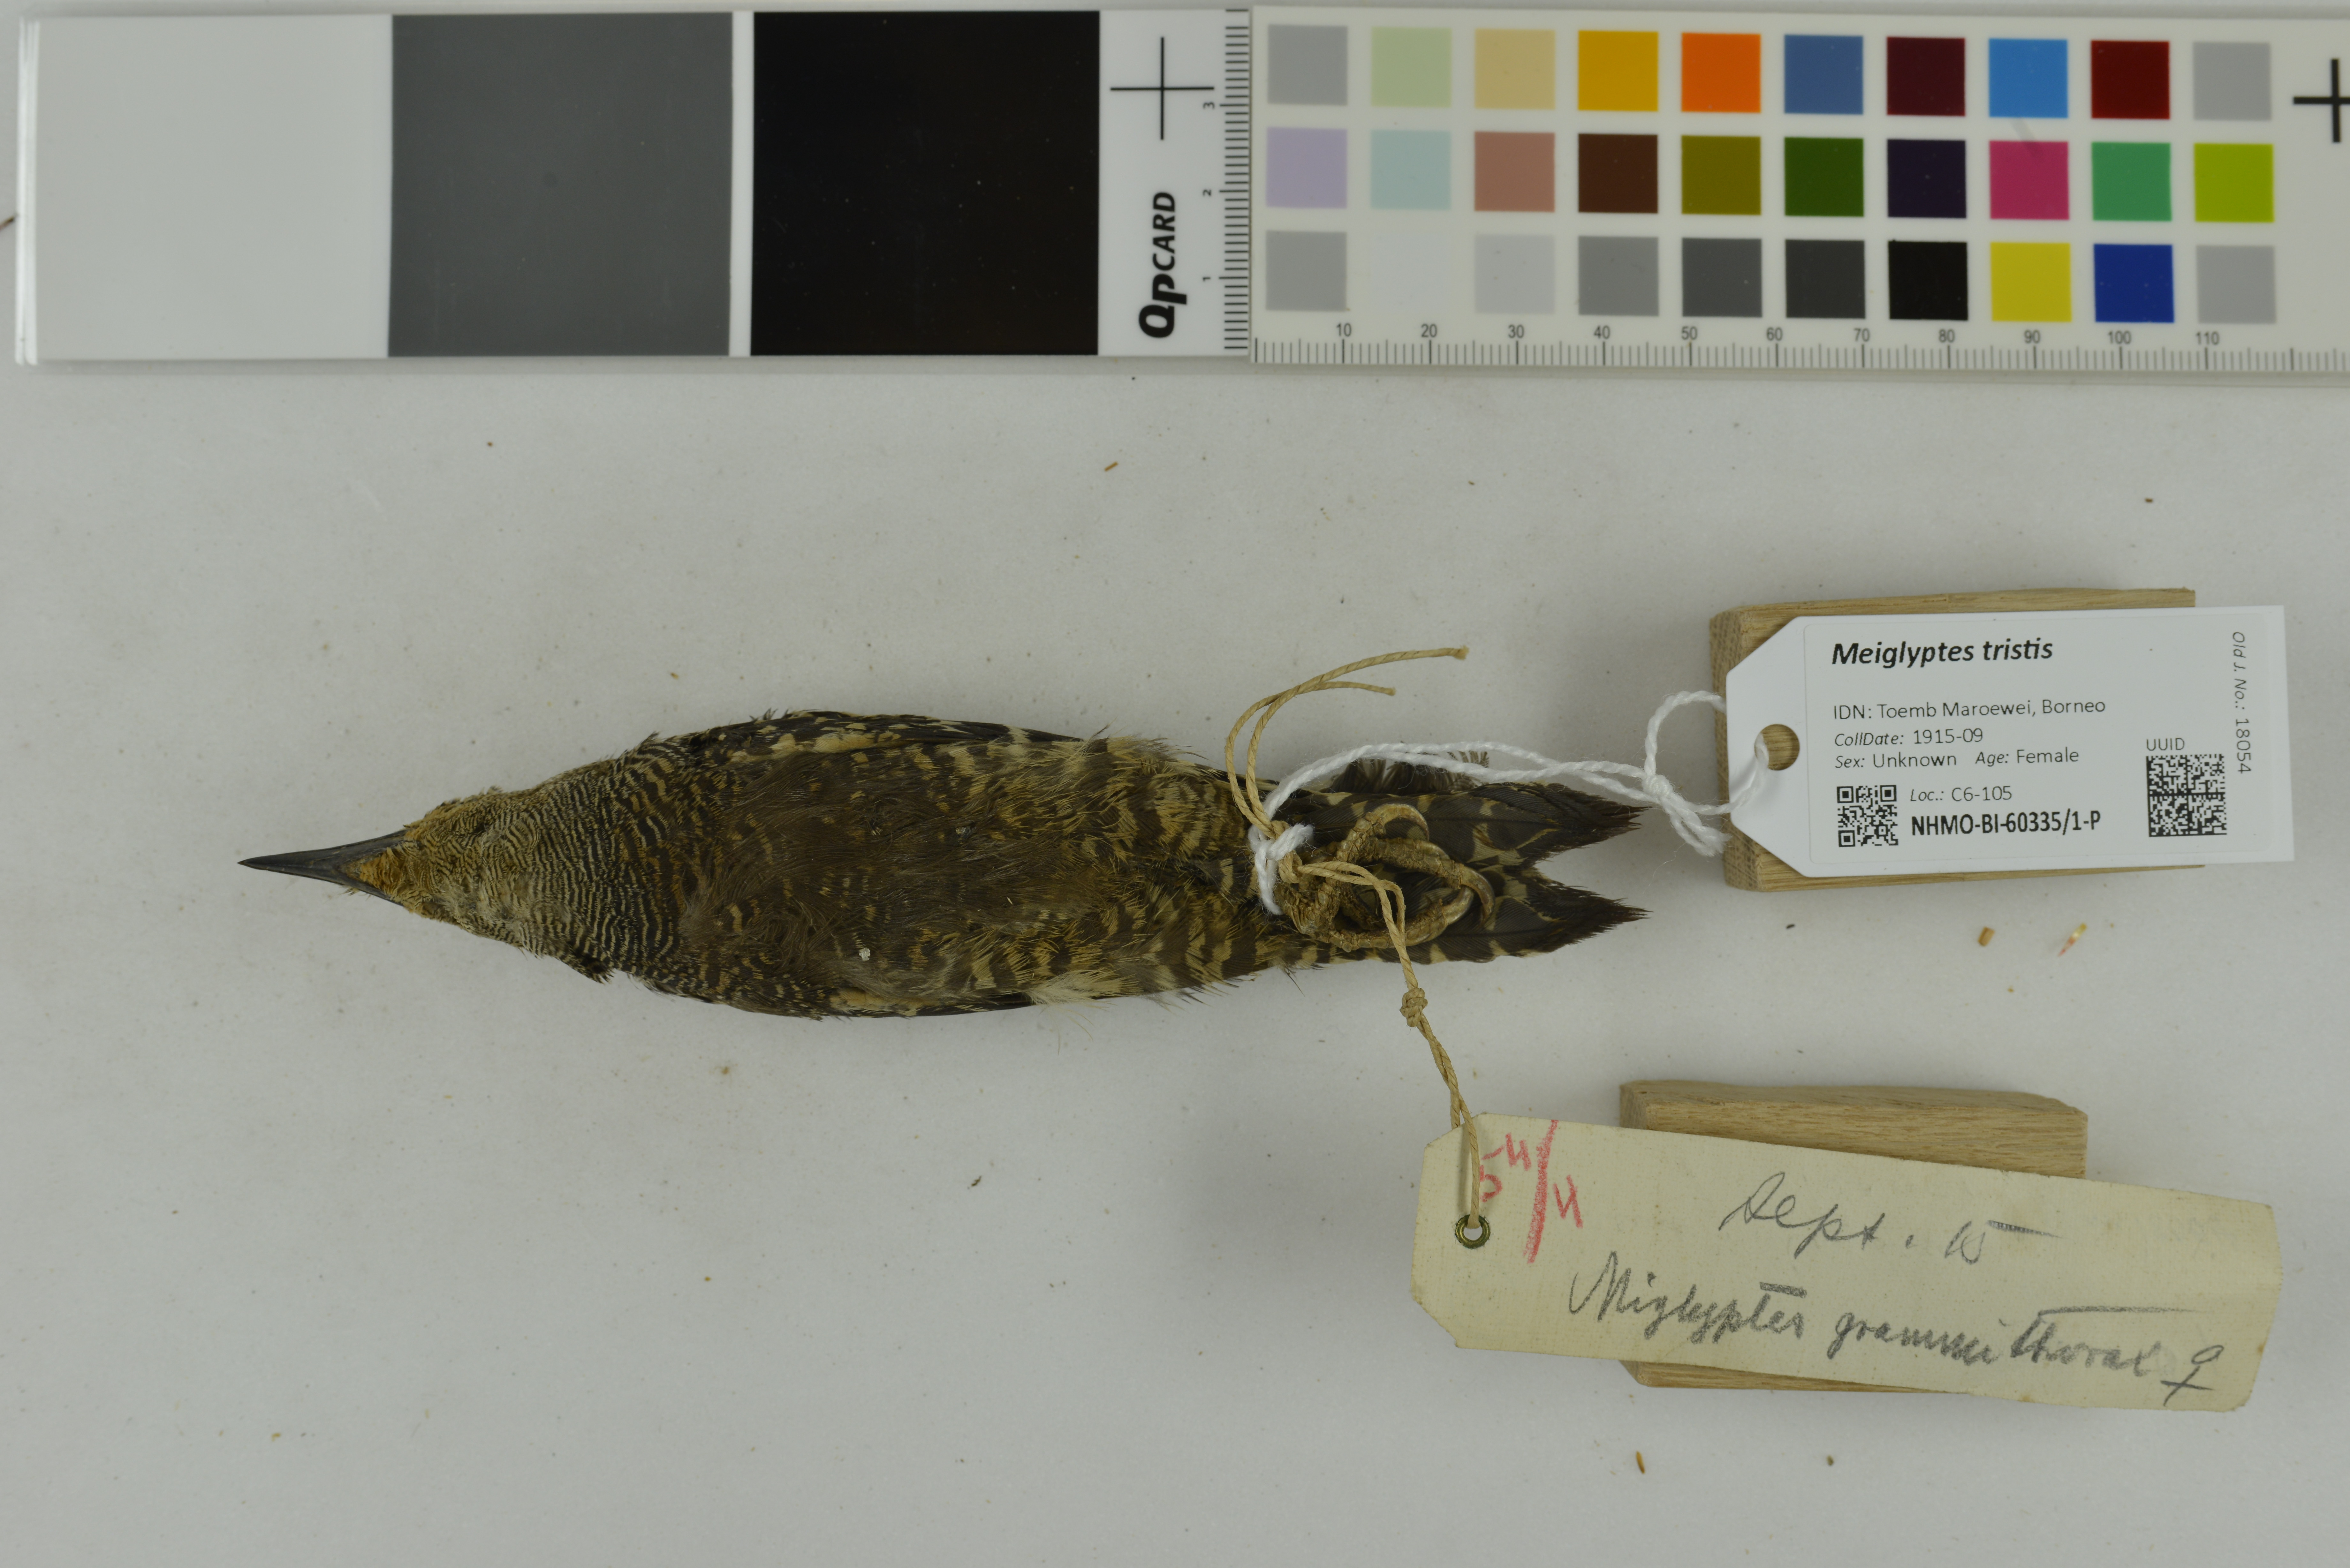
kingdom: Animalia
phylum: Chordata
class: Aves
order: Piciformes
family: Picidae
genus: Meiglyptes
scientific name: Meiglyptes tristis
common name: Buff-rumped woodpecker
